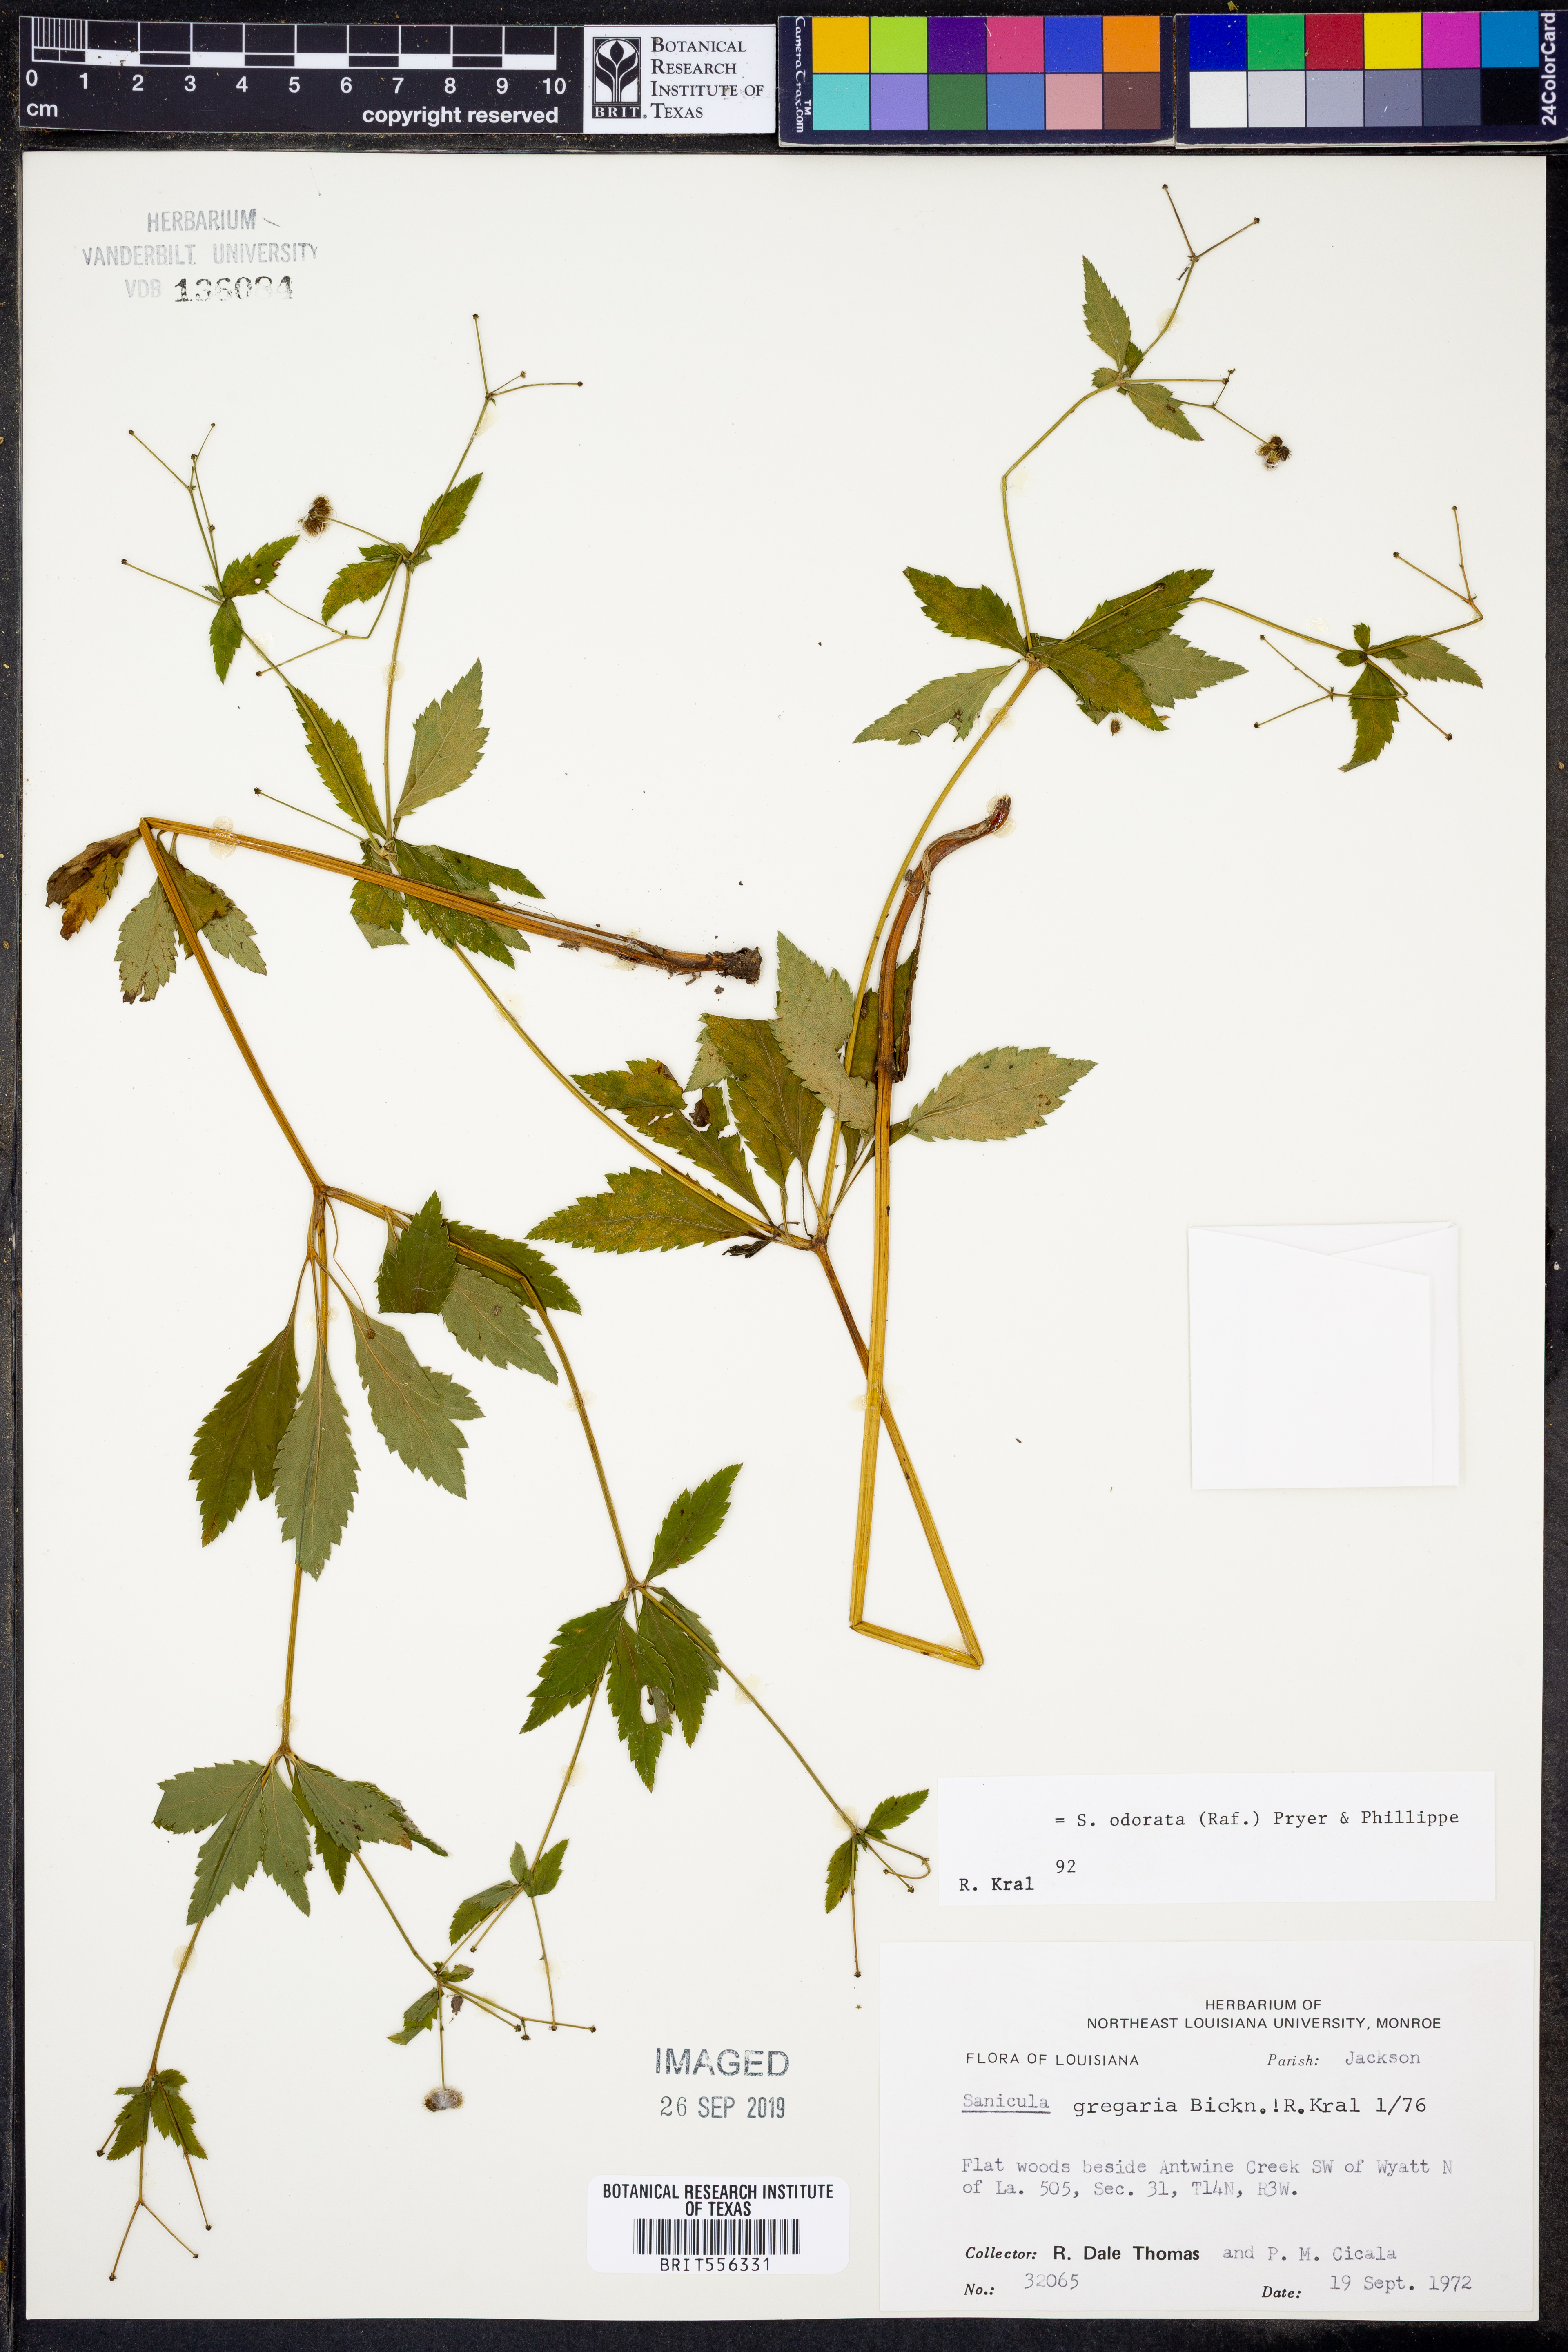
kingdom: Plantae
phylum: Tracheophyta
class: Magnoliopsida
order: Apiales
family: Apiaceae
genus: Sanicula
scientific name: Sanicula odorata
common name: Cluster sanicle
